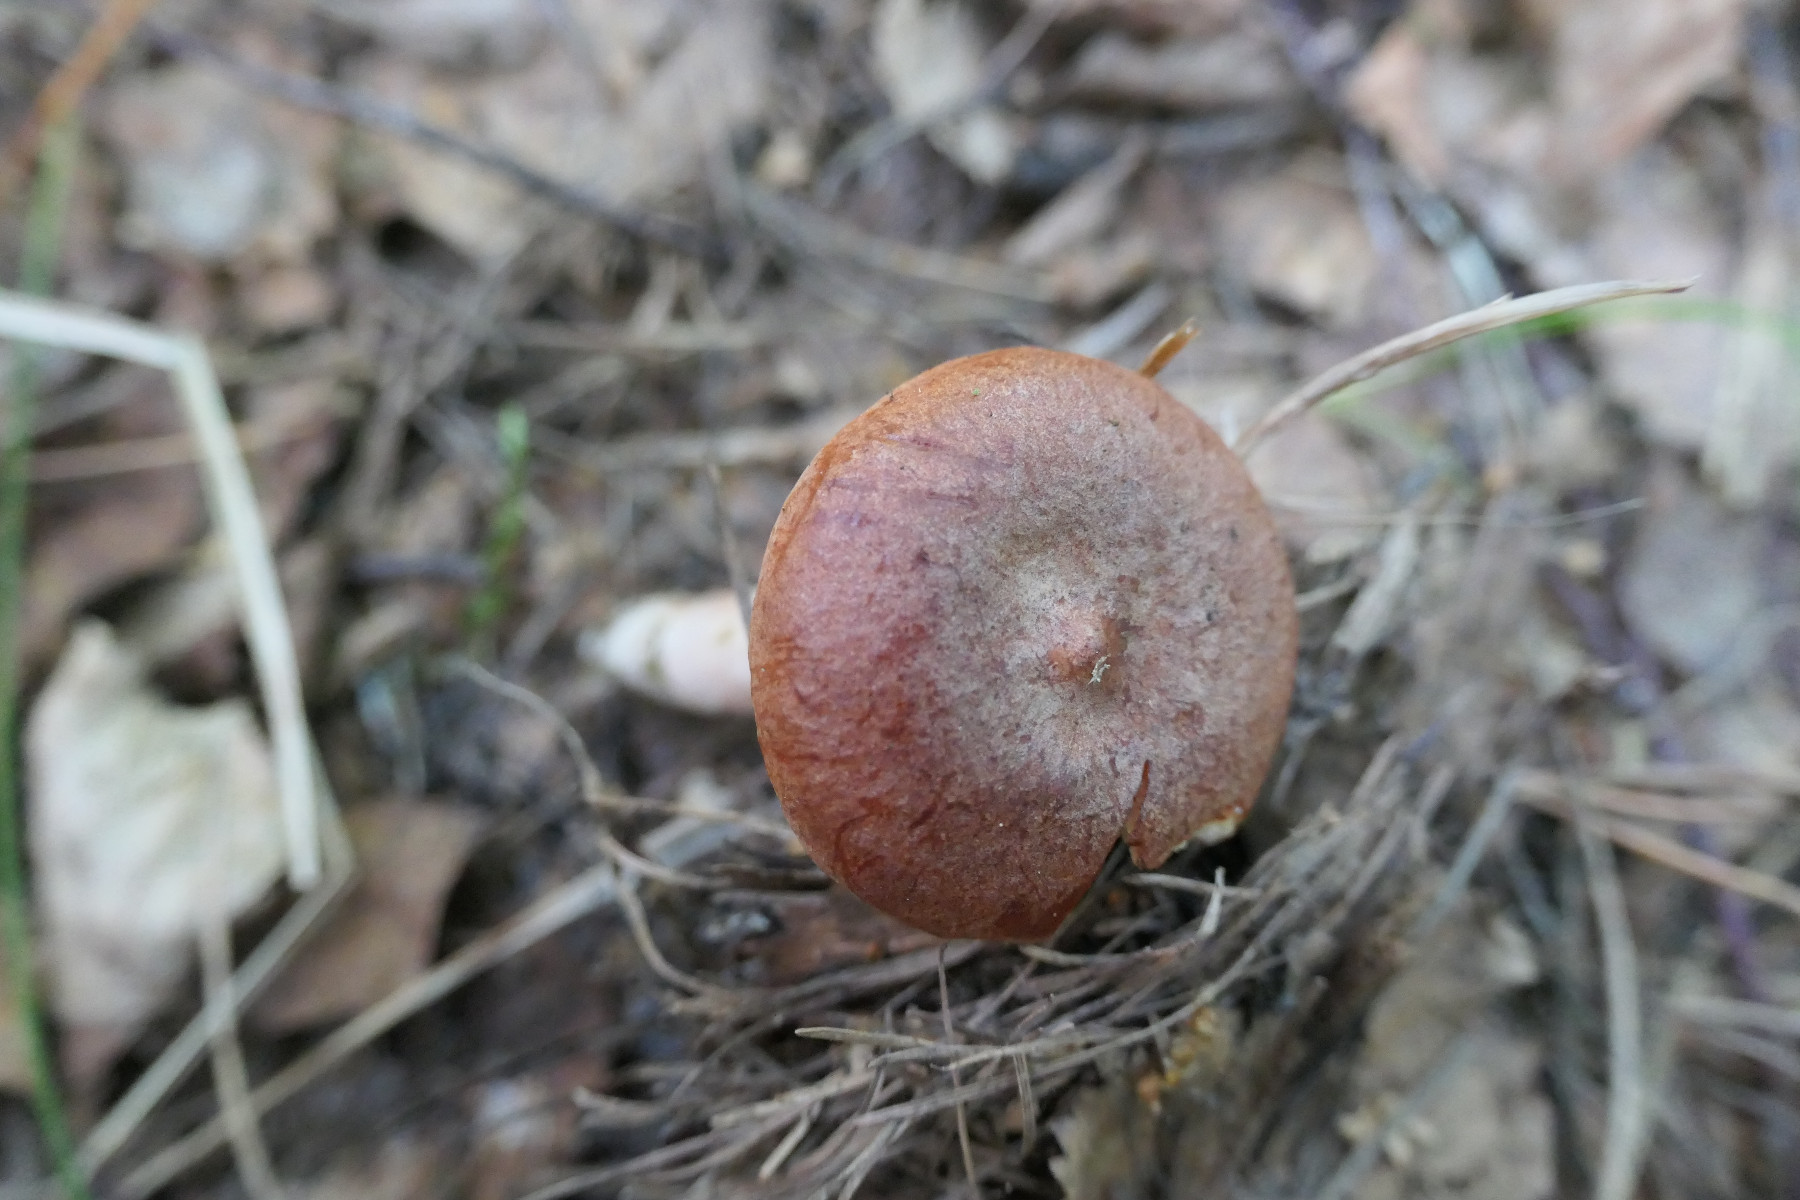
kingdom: Fungi
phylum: Basidiomycota
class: Agaricomycetes
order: Russulales
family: Russulaceae
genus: Lactarius
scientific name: Lactarius rufus
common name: rødbrun mælkehat
